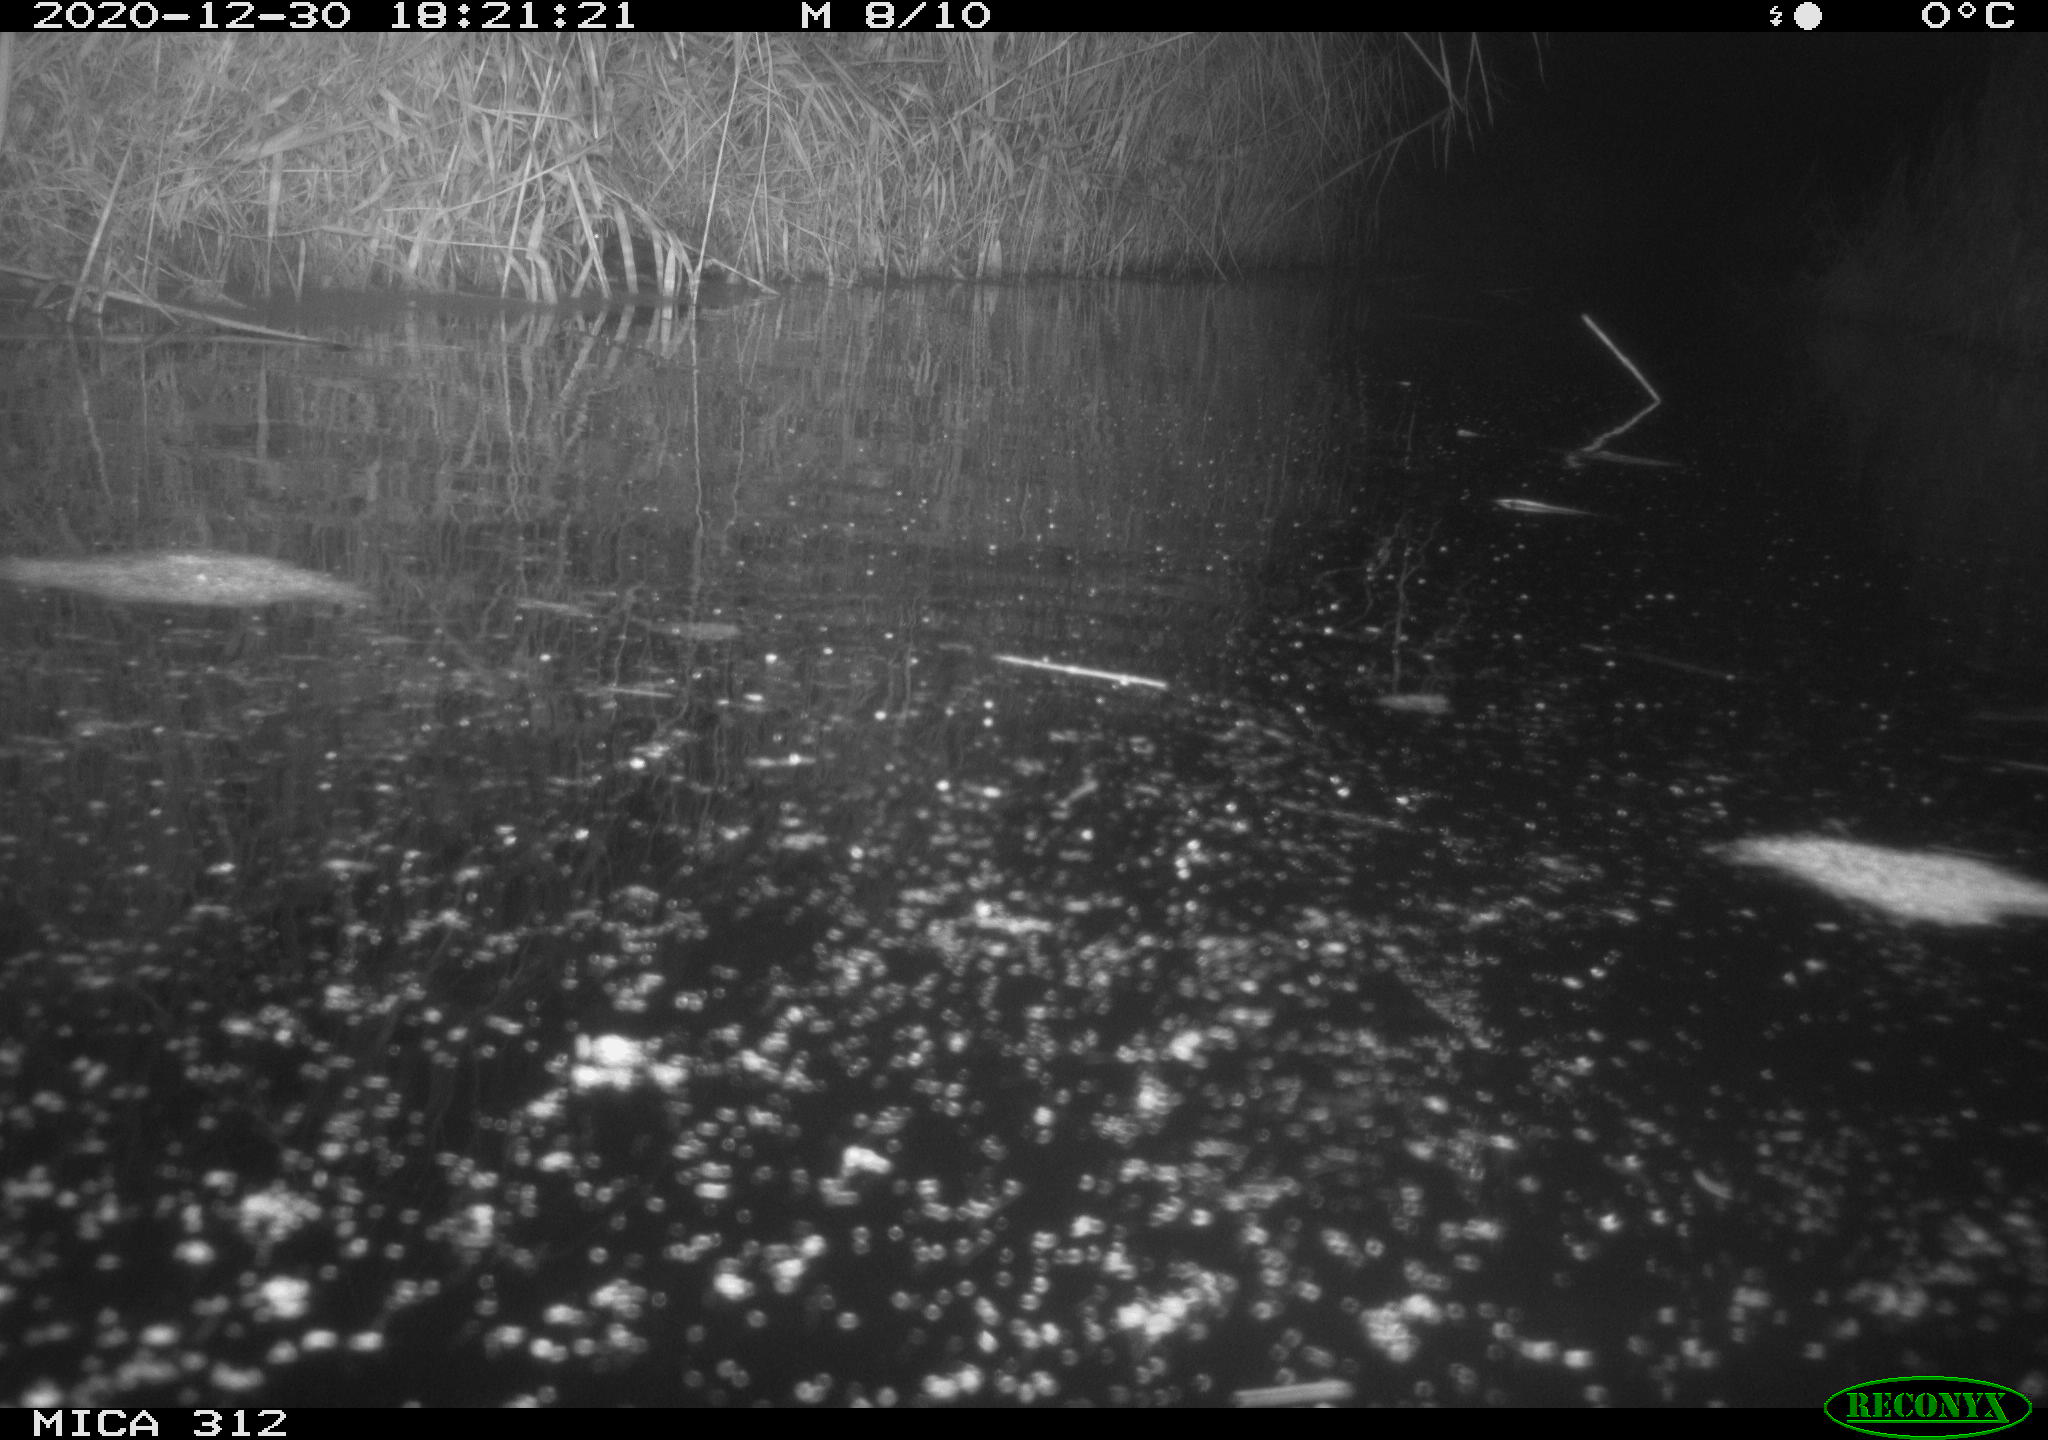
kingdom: Animalia
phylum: Chordata
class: Aves
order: Gruiformes
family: Rallidae
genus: Gallinula
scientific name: Gallinula chloropus
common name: Common moorhen
